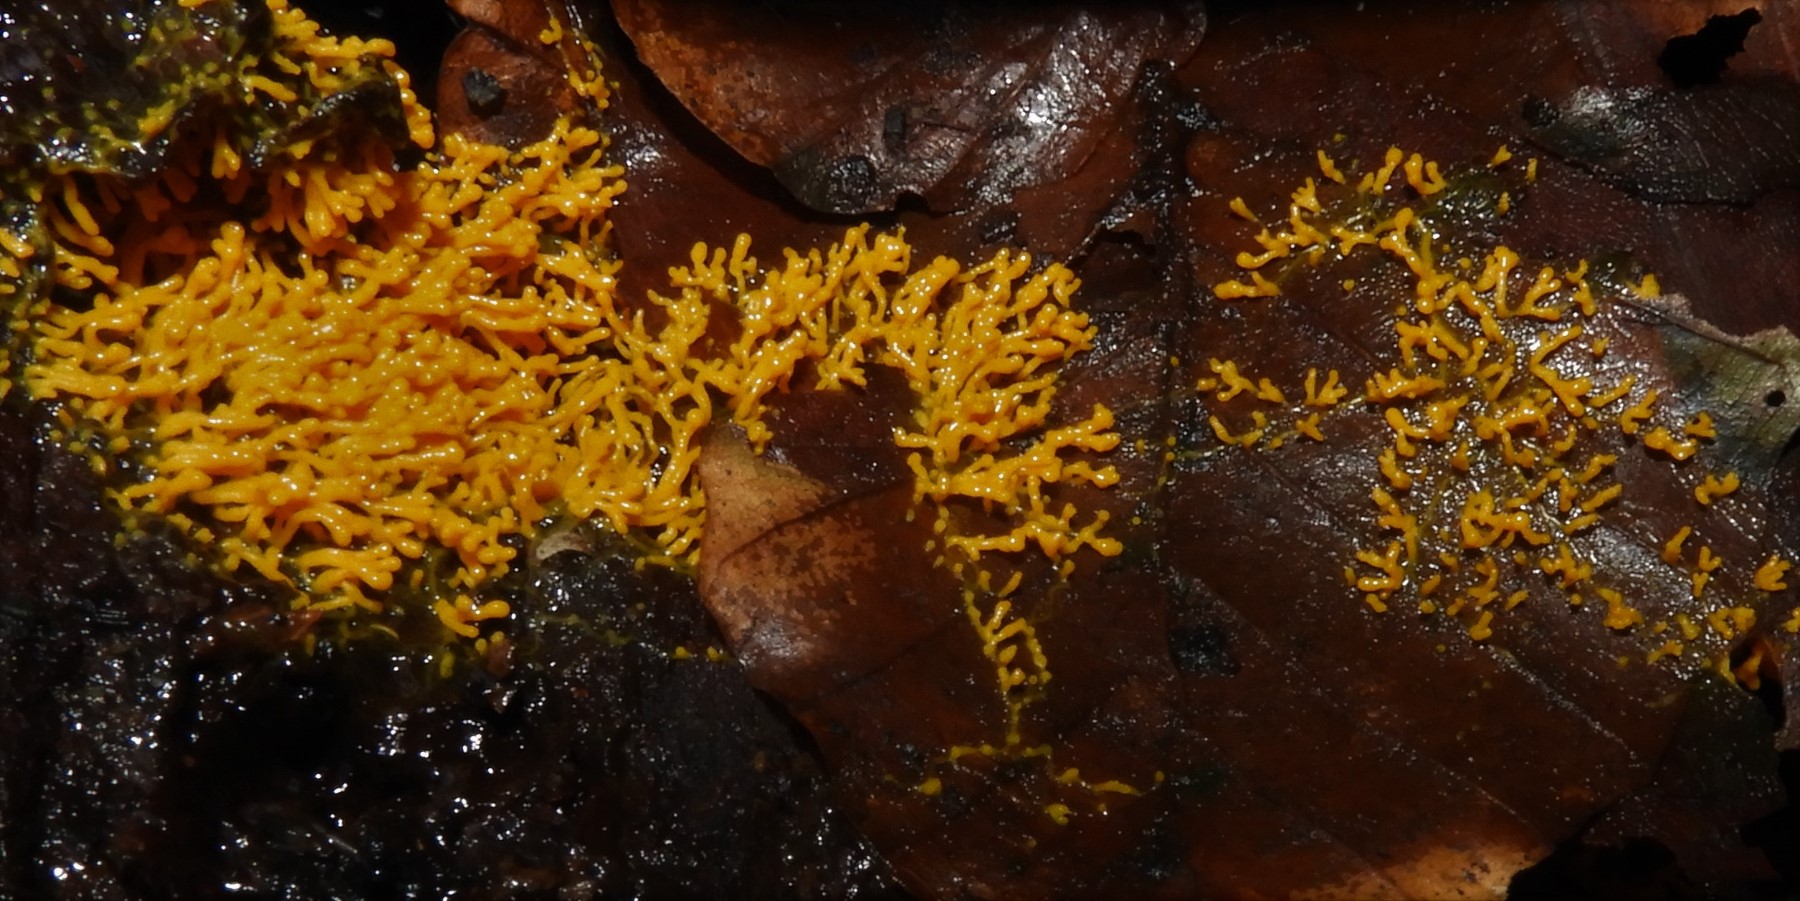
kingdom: Protozoa
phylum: Mycetozoa
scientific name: Mycetozoa
